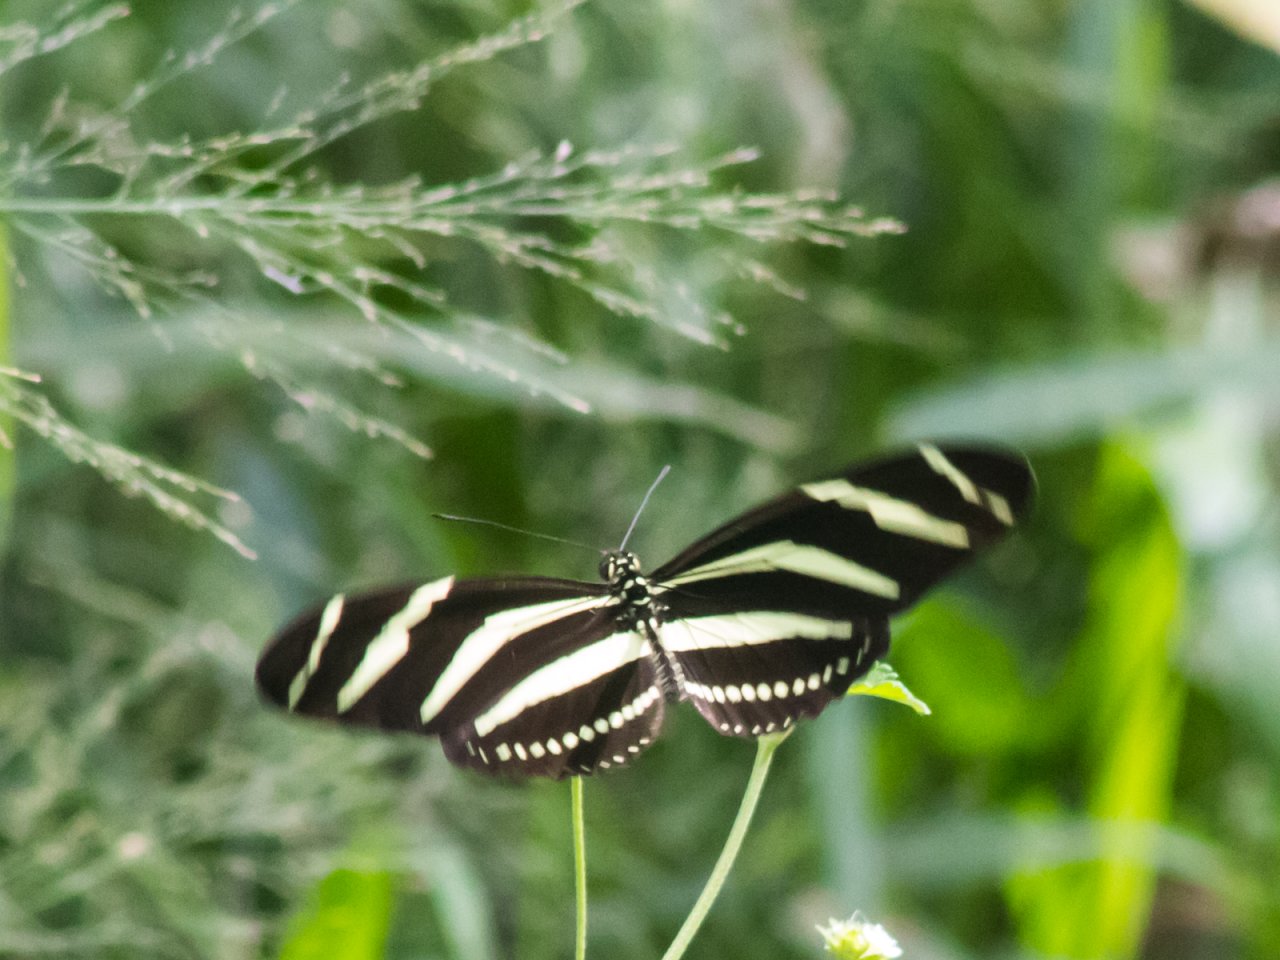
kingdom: Animalia
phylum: Arthropoda
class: Insecta
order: Lepidoptera
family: Nymphalidae
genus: Heliconius
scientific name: Heliconius charithonia
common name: Zebra Longwing
